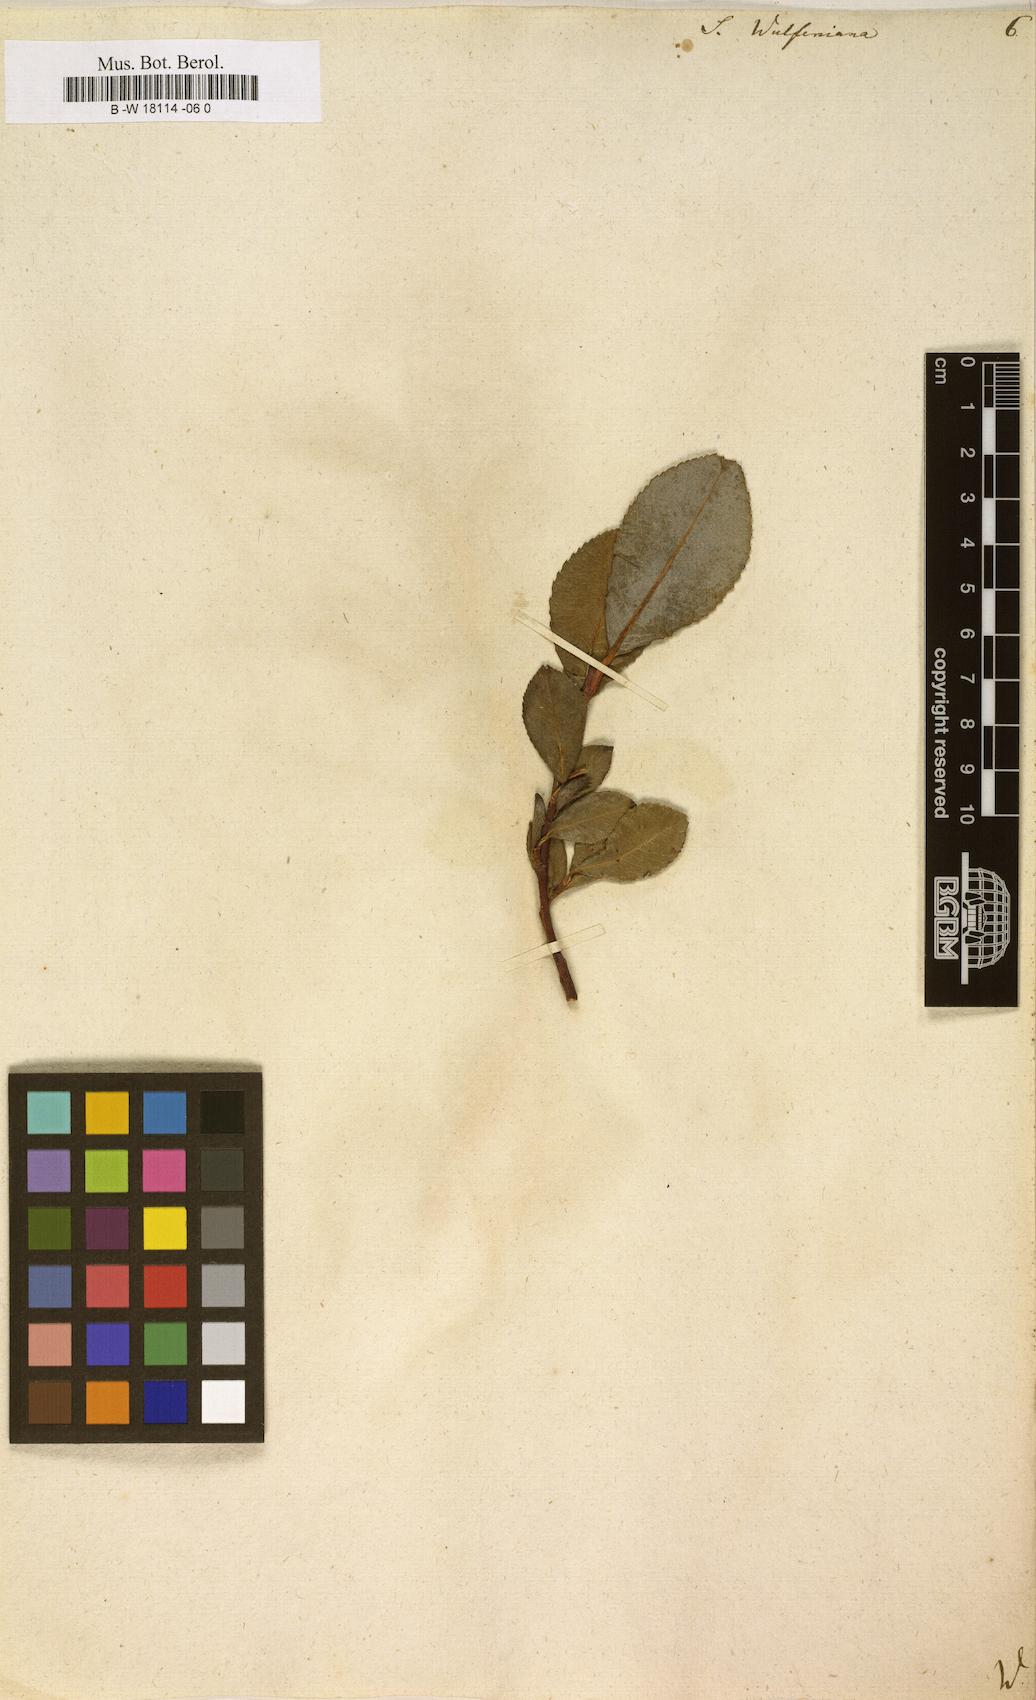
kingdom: Plantae
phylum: Tracheophyta
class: Magnoliopsida
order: Malpighiales
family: Salicaceae
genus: Salix
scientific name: Salix
